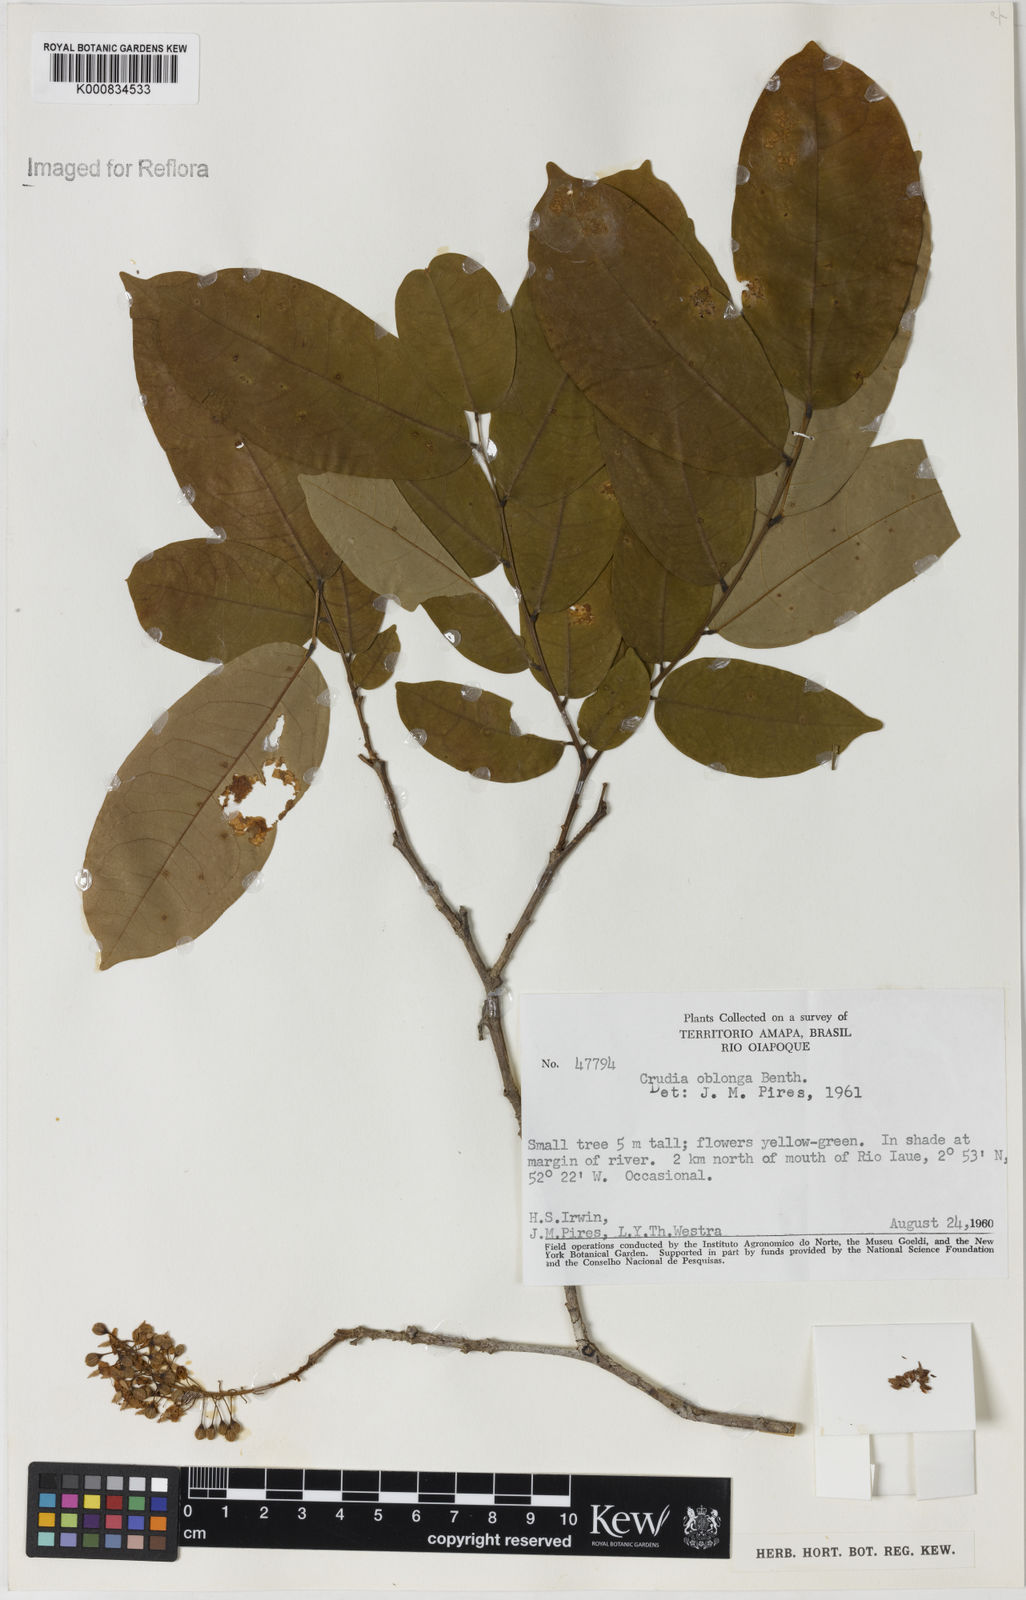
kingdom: Plantae
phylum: Tracheophyta
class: Magnoliopsida
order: Fabales
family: Fabaceae
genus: Crudia
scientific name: Crudia glaberrima
